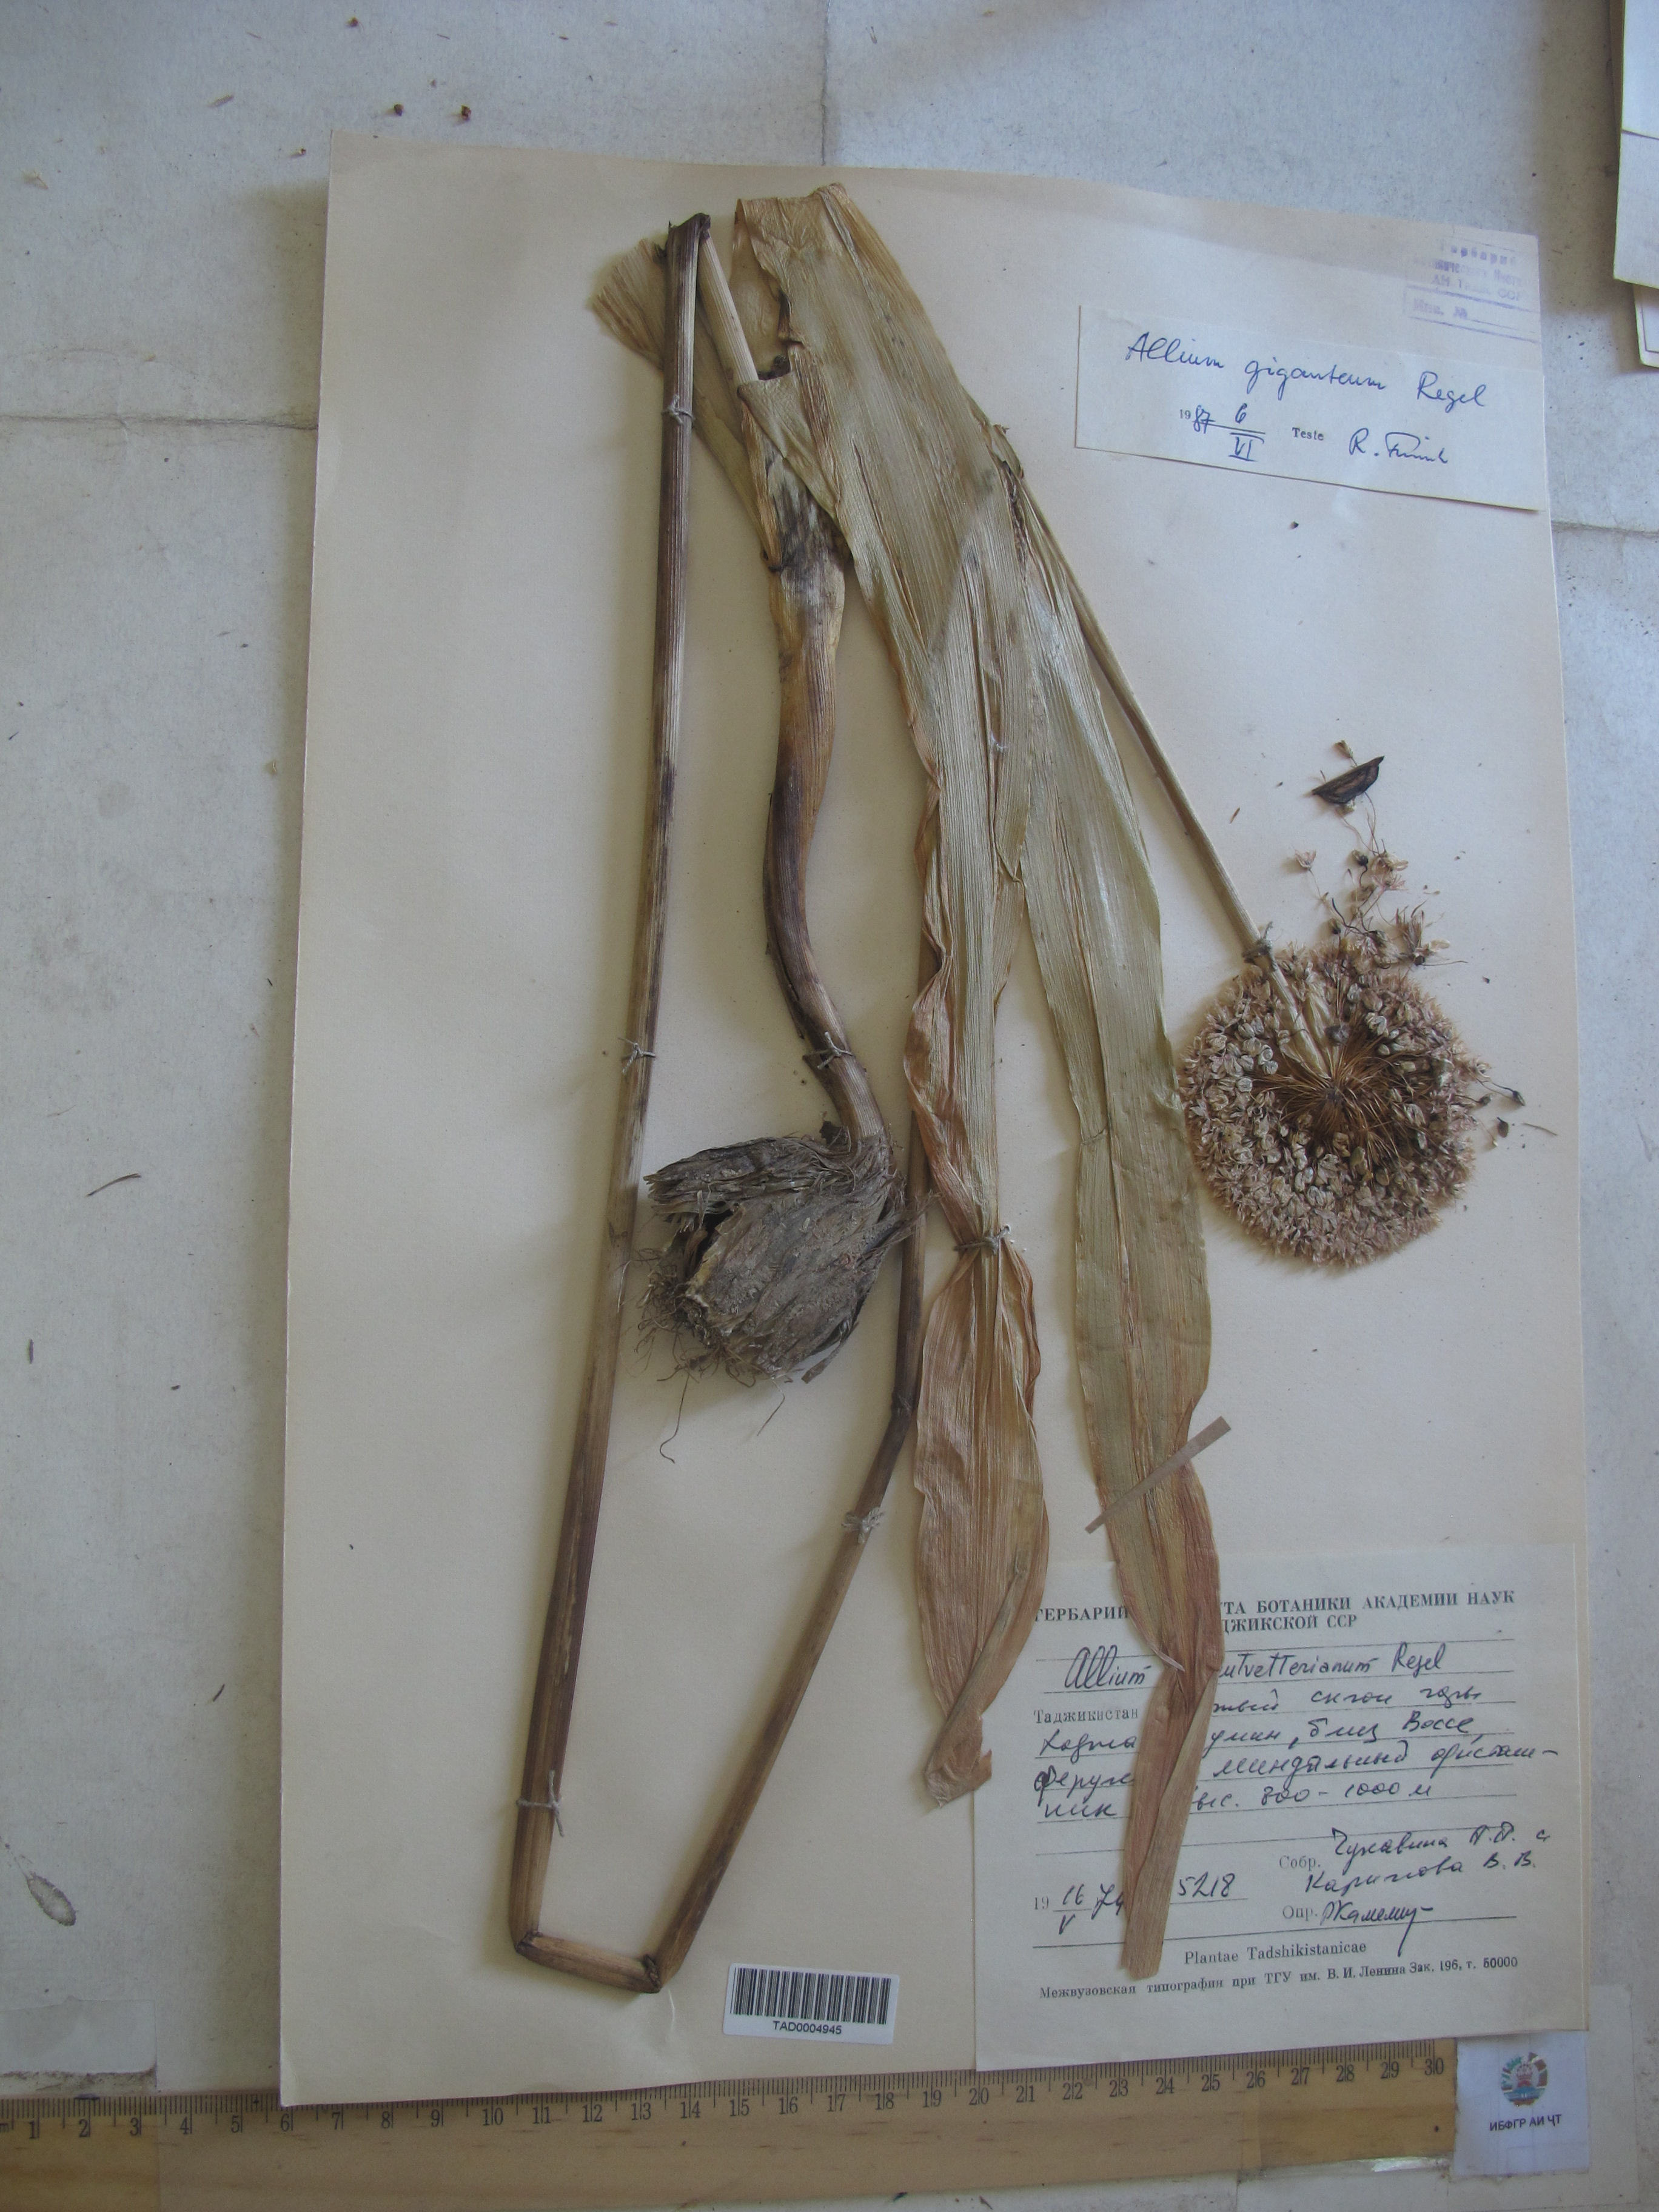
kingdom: Plantae
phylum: Tracheophyta
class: Liliopsida
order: Asparagales
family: Amaryllidaceae
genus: Allium
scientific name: Allium giganteum
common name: Giant onion
